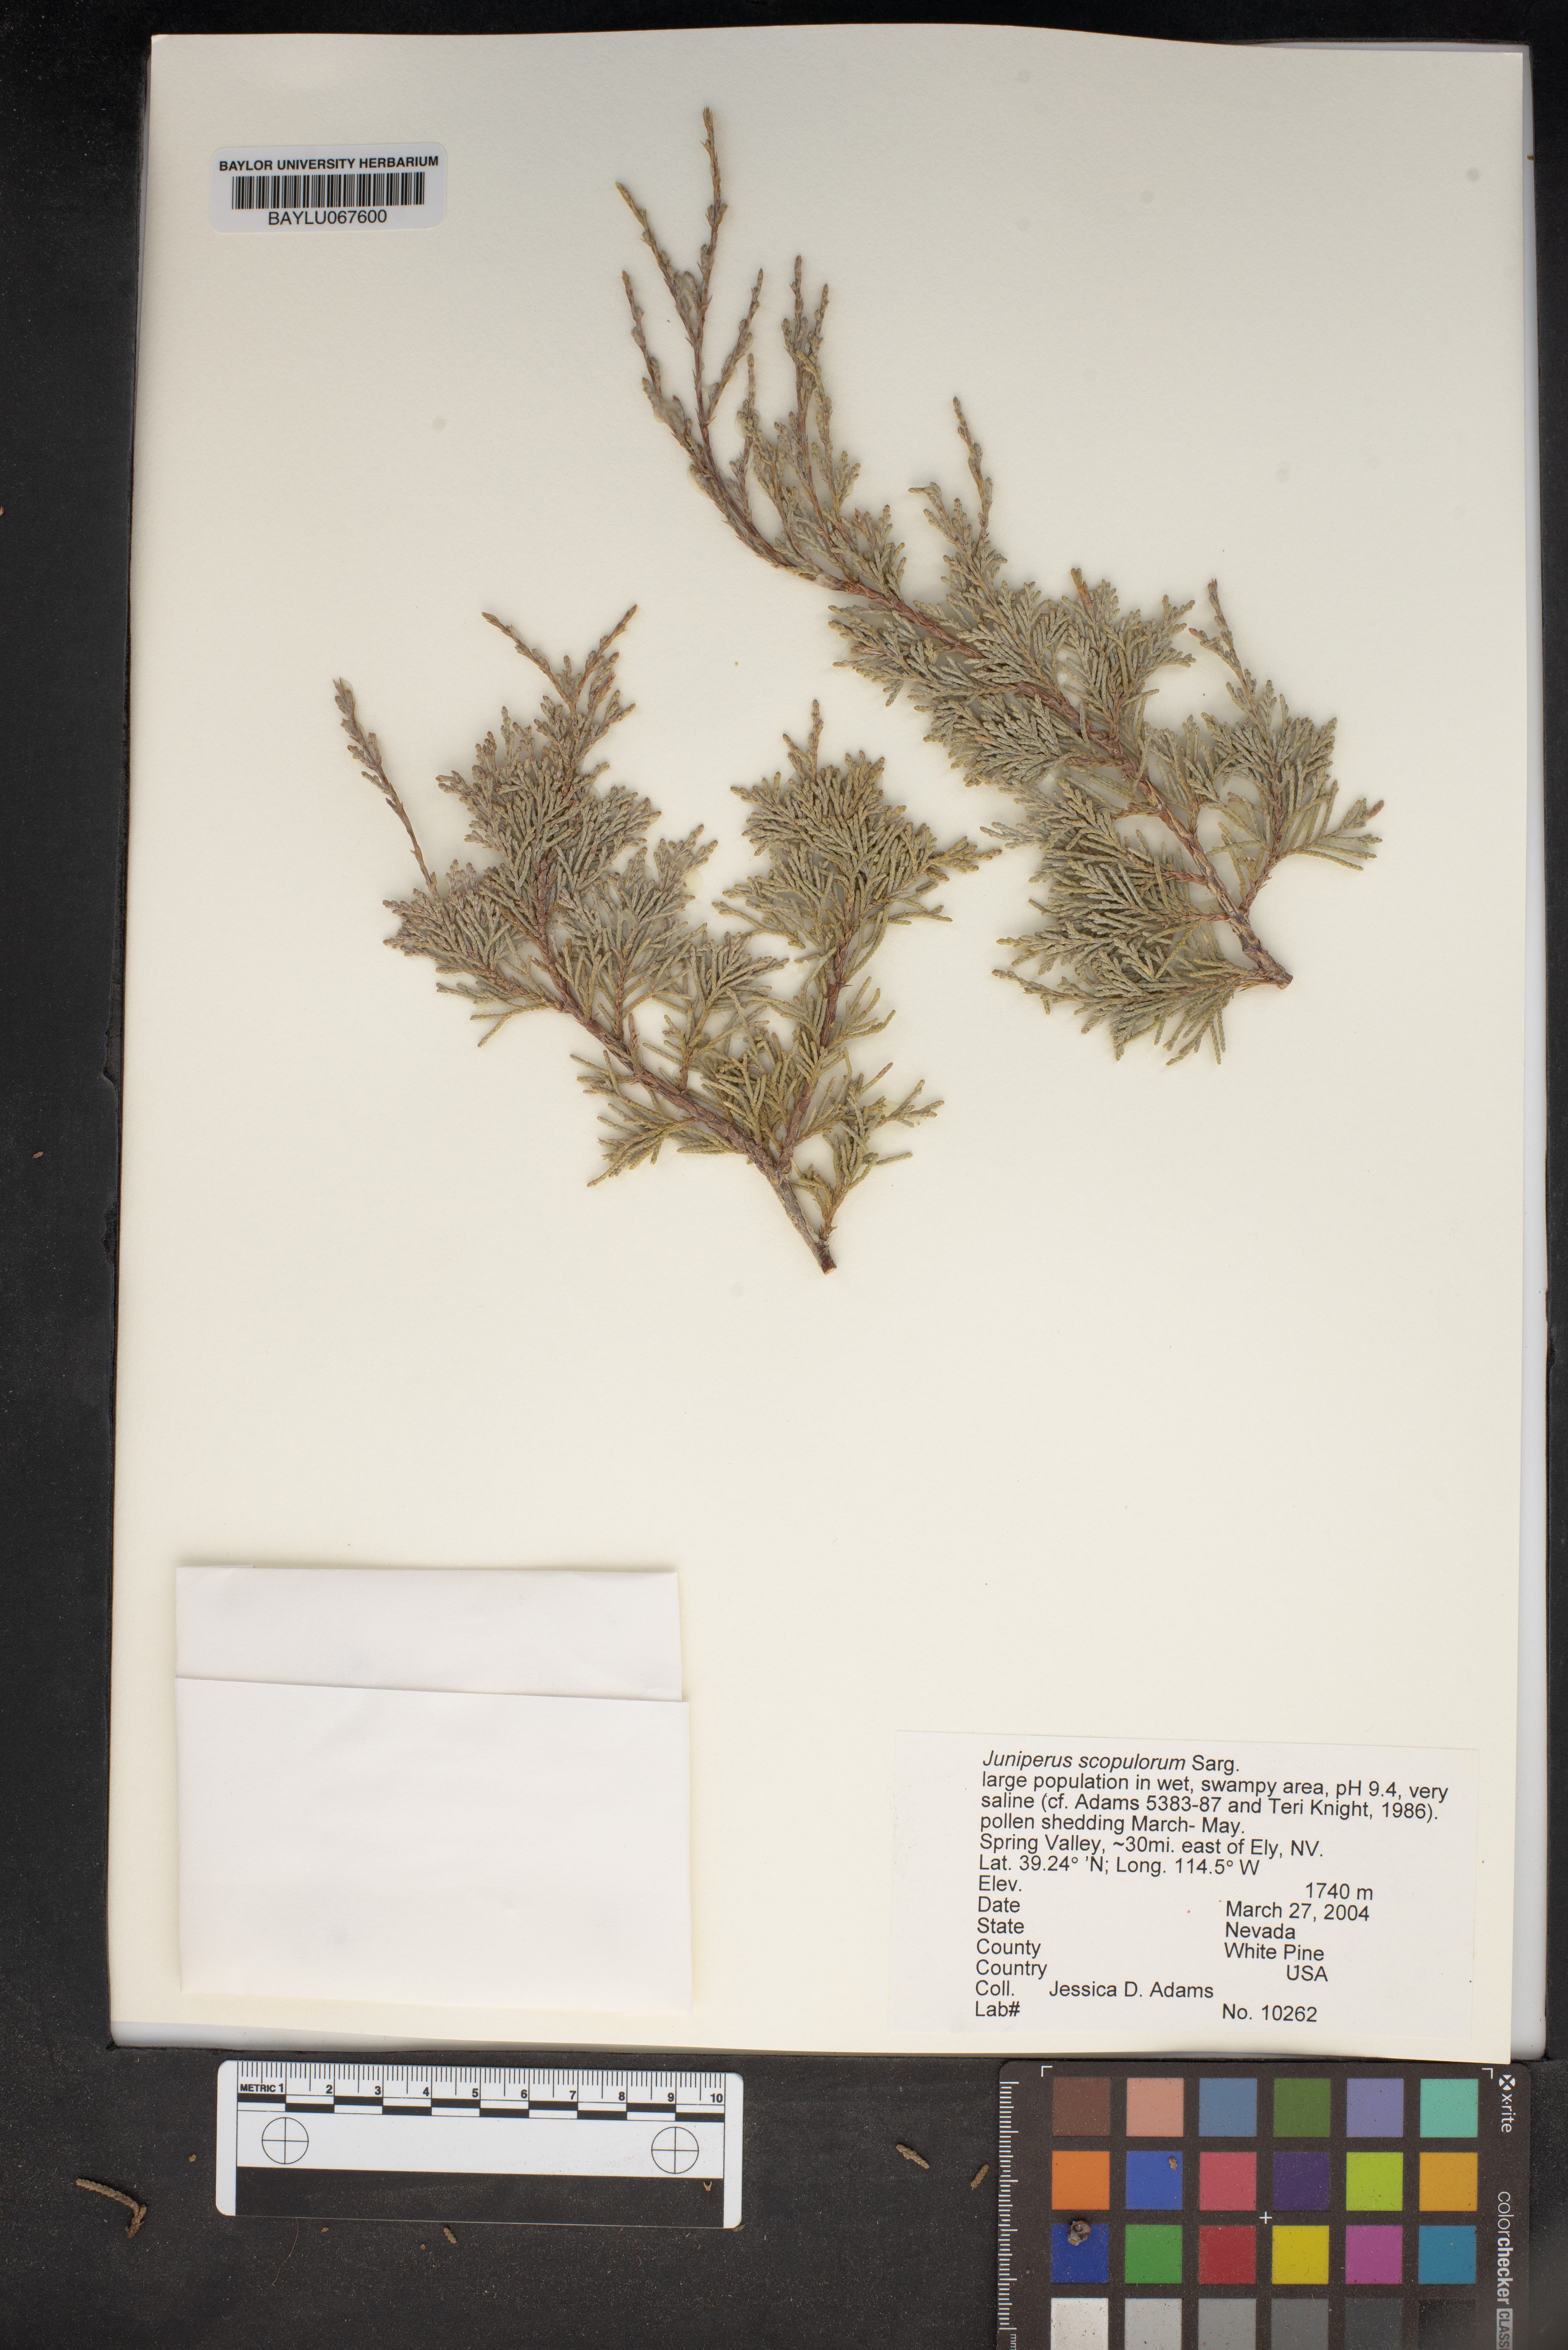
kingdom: Plantae
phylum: Tracheophyta
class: Pinopsida
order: Pinales
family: Cupressaceae
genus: Juniperus
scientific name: Juniperus scopulorum
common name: Rocky mountain juniper
